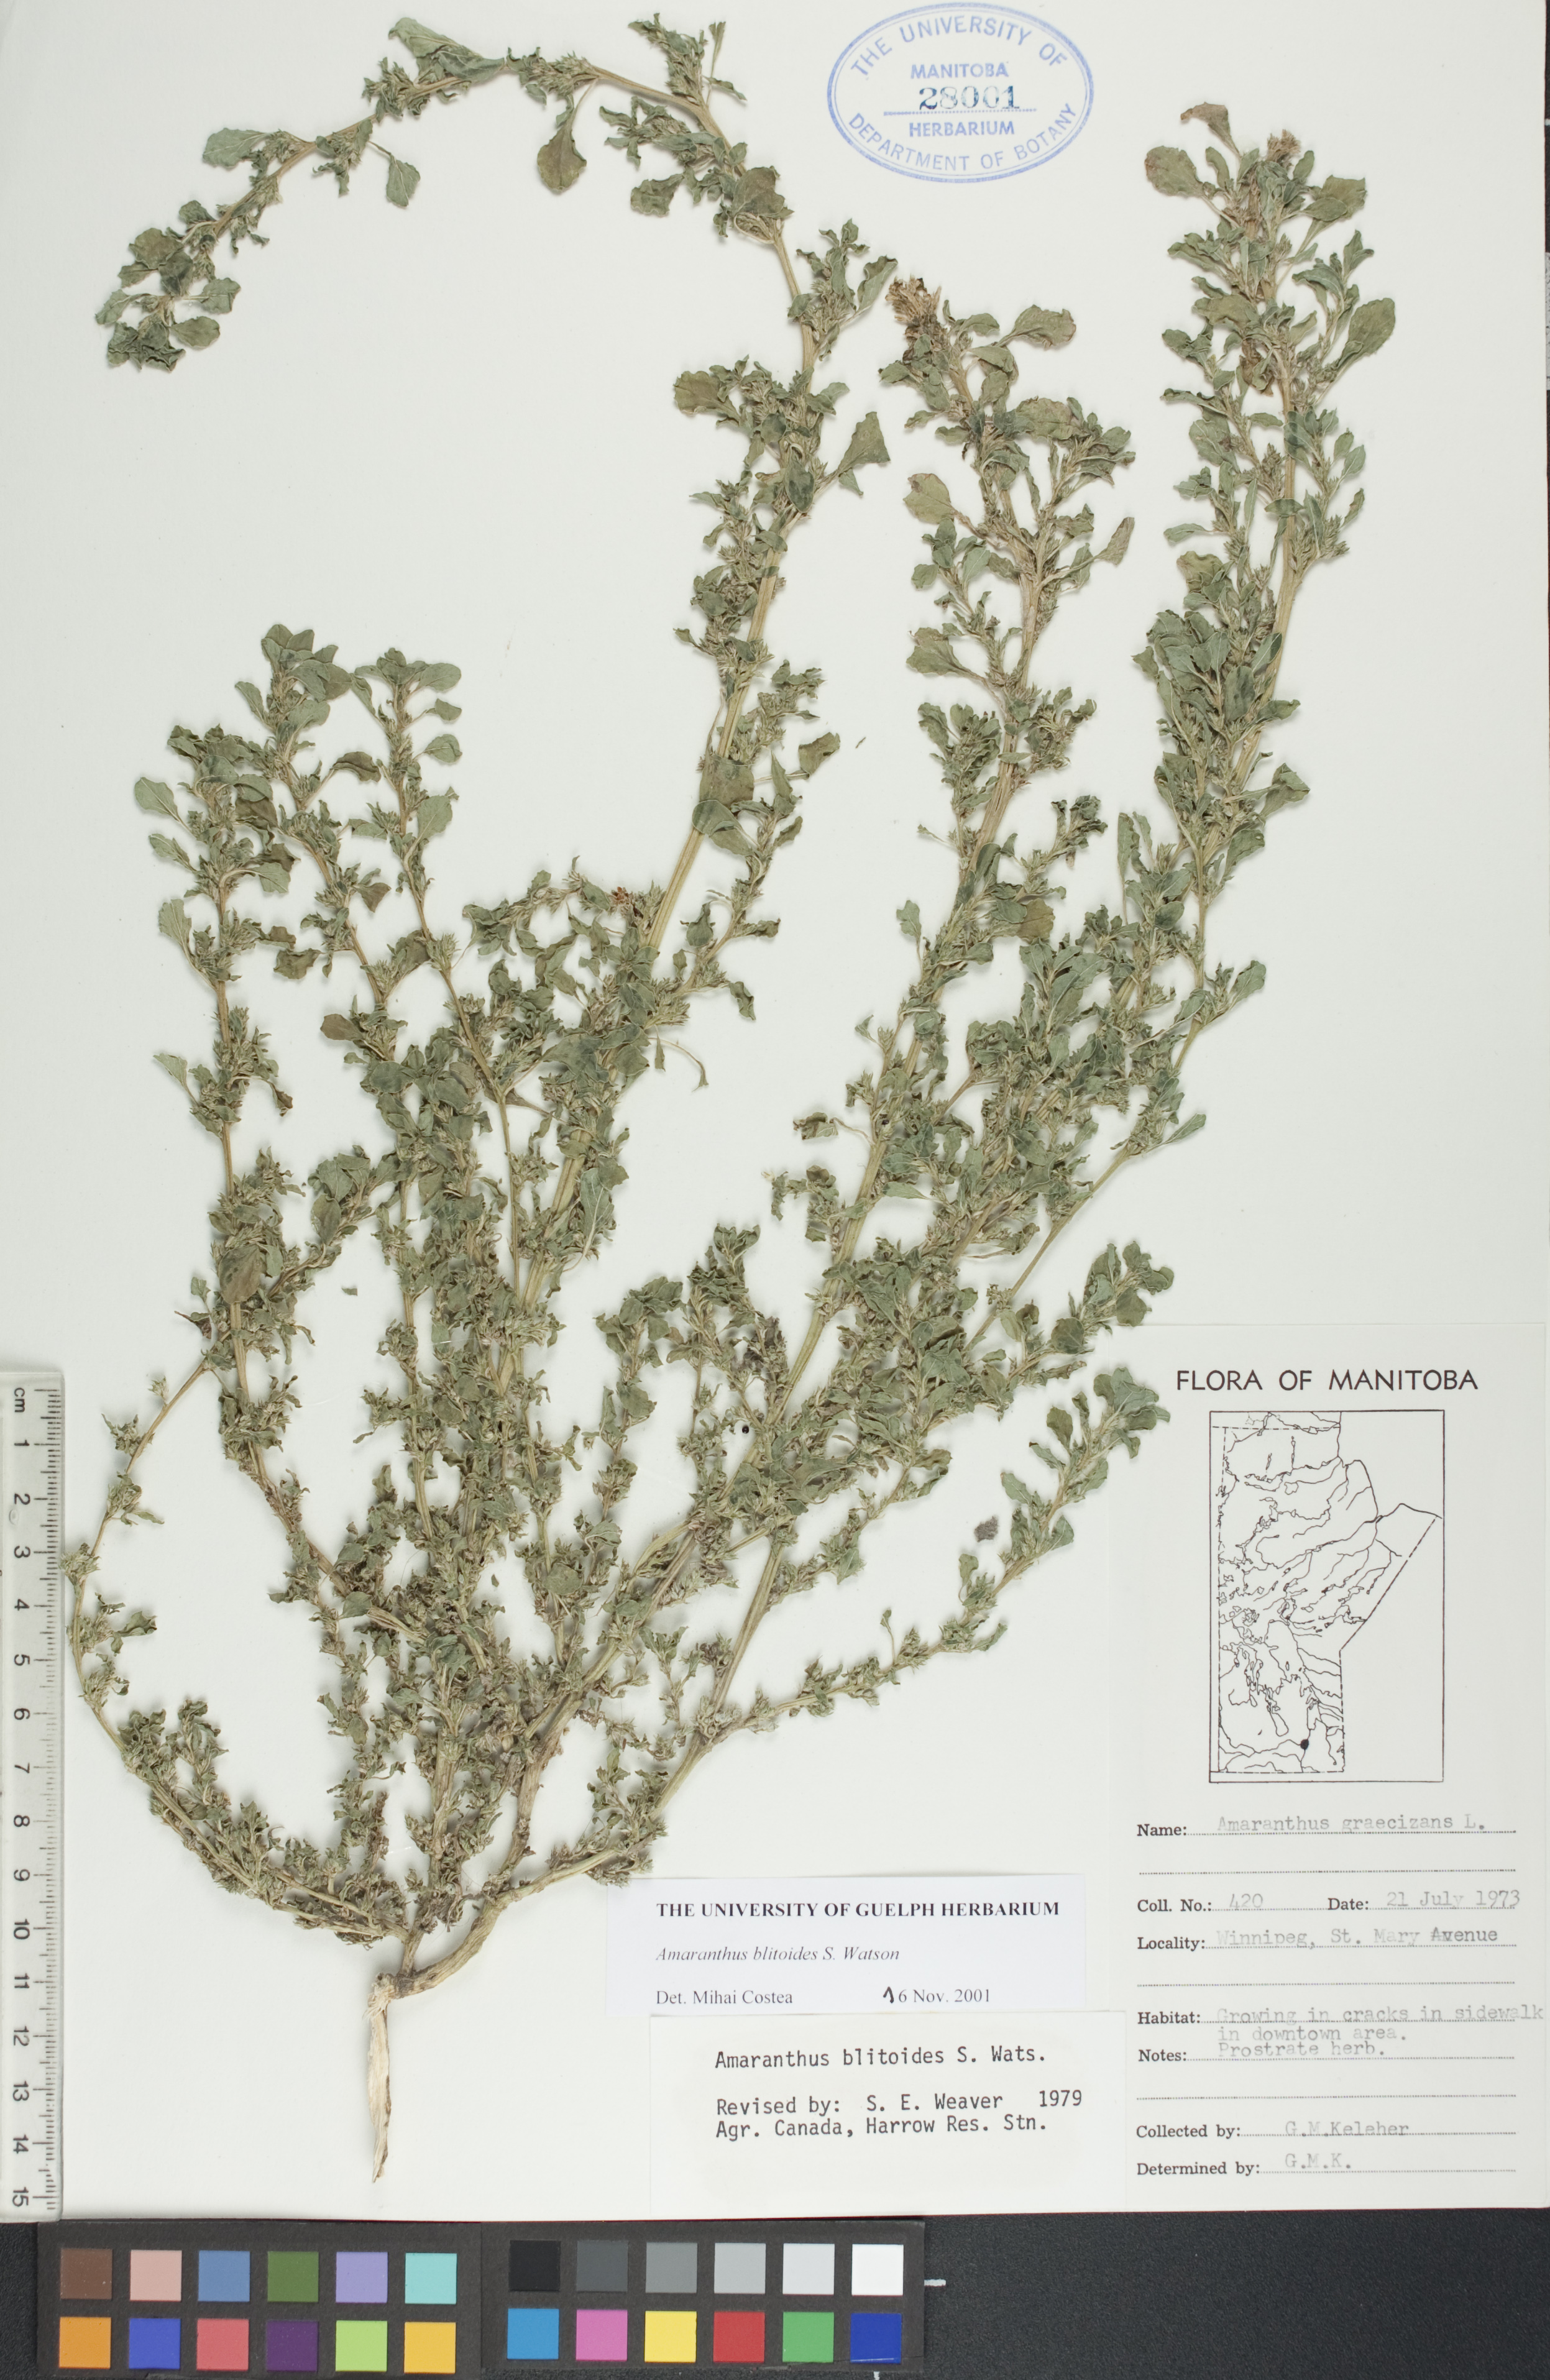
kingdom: Plantae
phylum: Tracheophyta
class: Magnoliopsida
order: Caryophyllales
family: Amaranthaceae
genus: Amaranthus
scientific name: Amaranthus blitoides
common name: Prostrate pigweed
